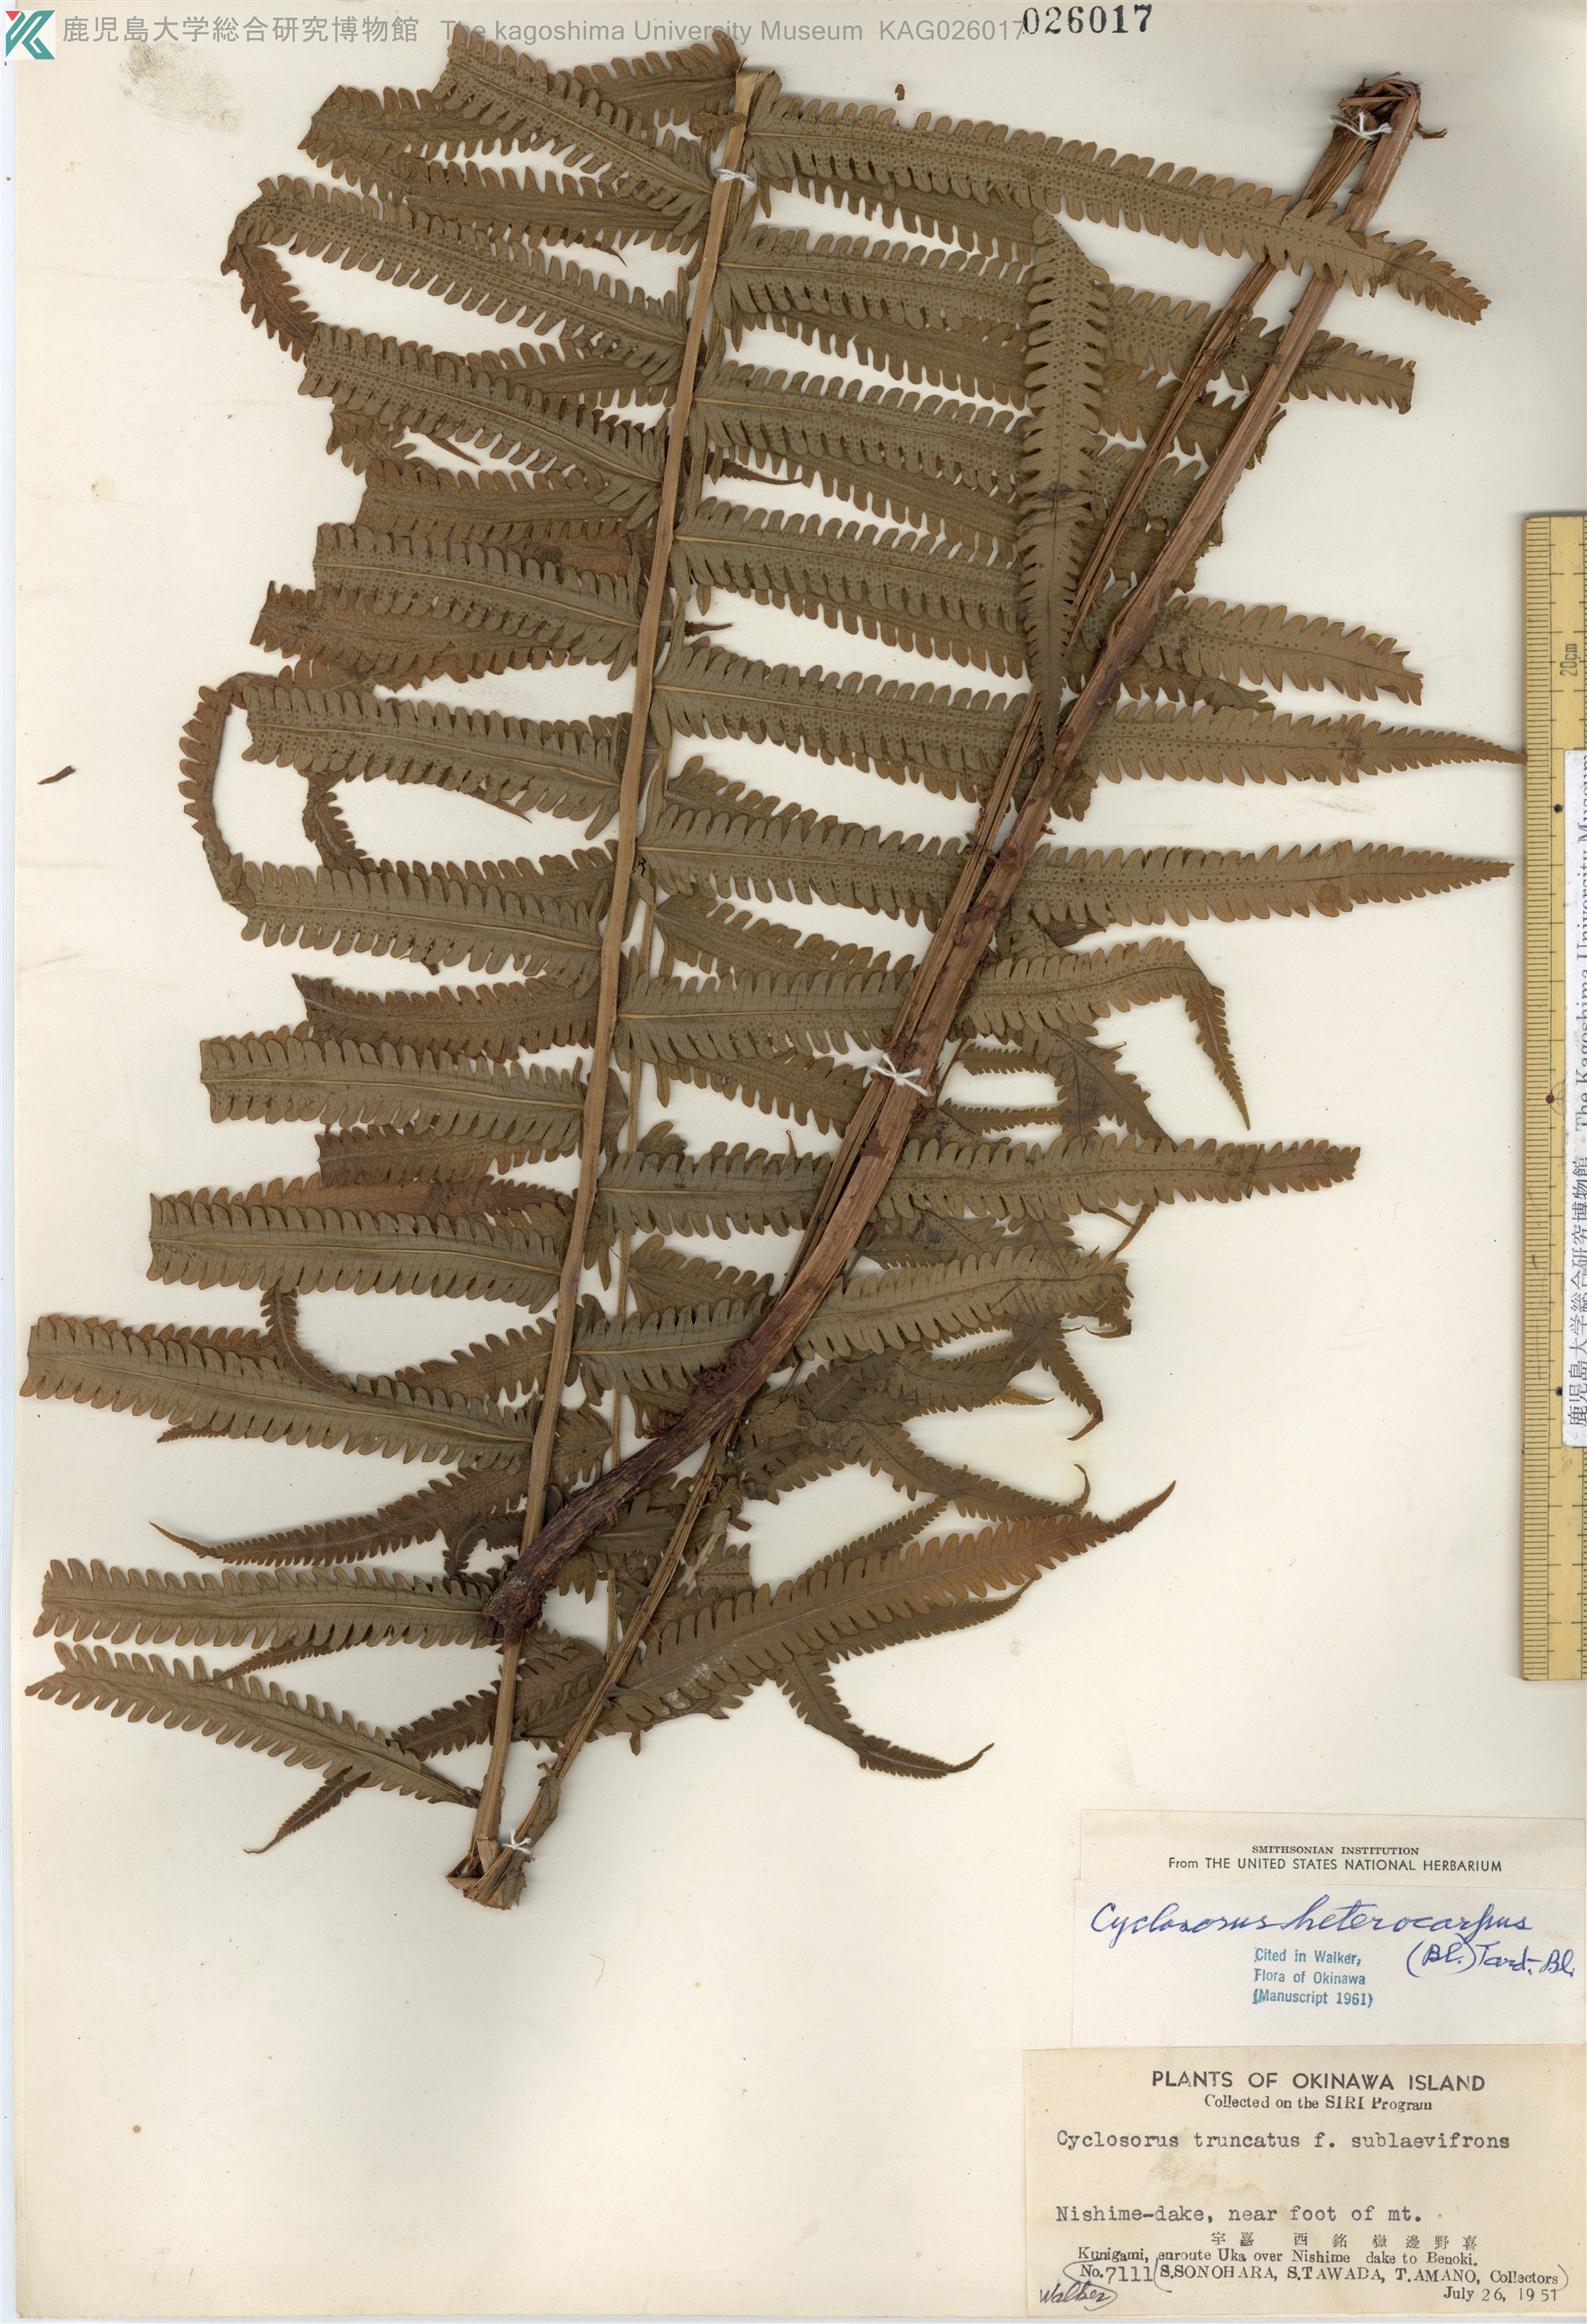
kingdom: Plantae
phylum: Tracheophyta
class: Polypodiopsida
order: Polypodiales
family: Thelypteridaceae
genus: Sphaerostephanos
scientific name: Sphaerostephanos taiwanensis
